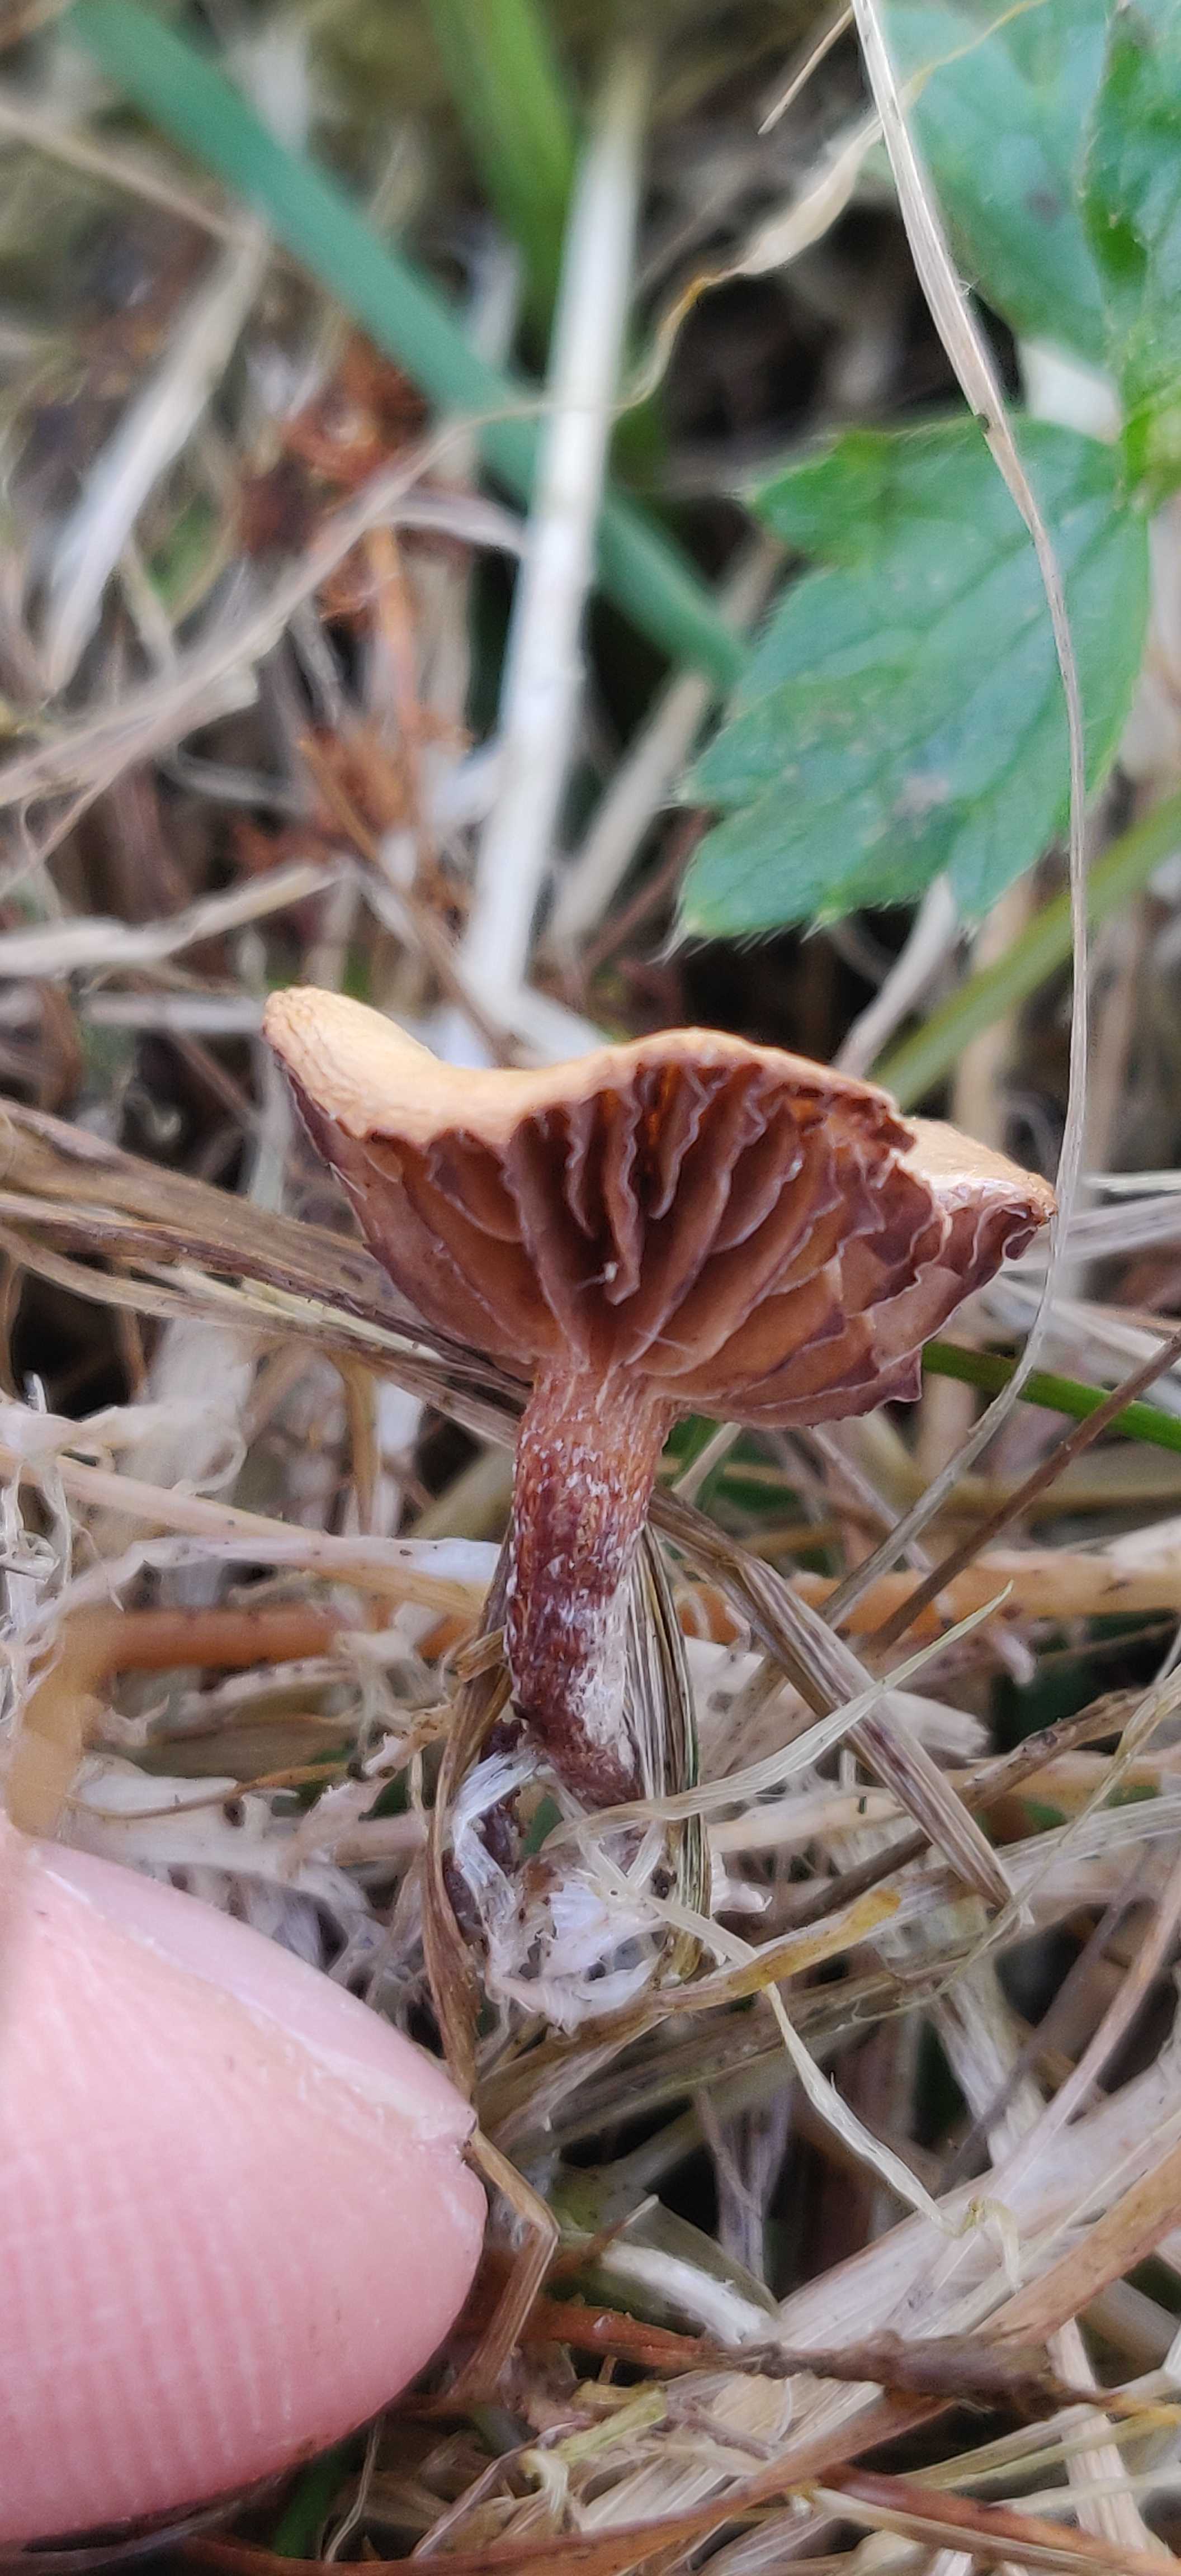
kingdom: Fungi
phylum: Basidiomycota
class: Agaricomycetes
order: Agaricales
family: Strophariaceae
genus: Deconica
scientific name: Deconica
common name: stråhat
